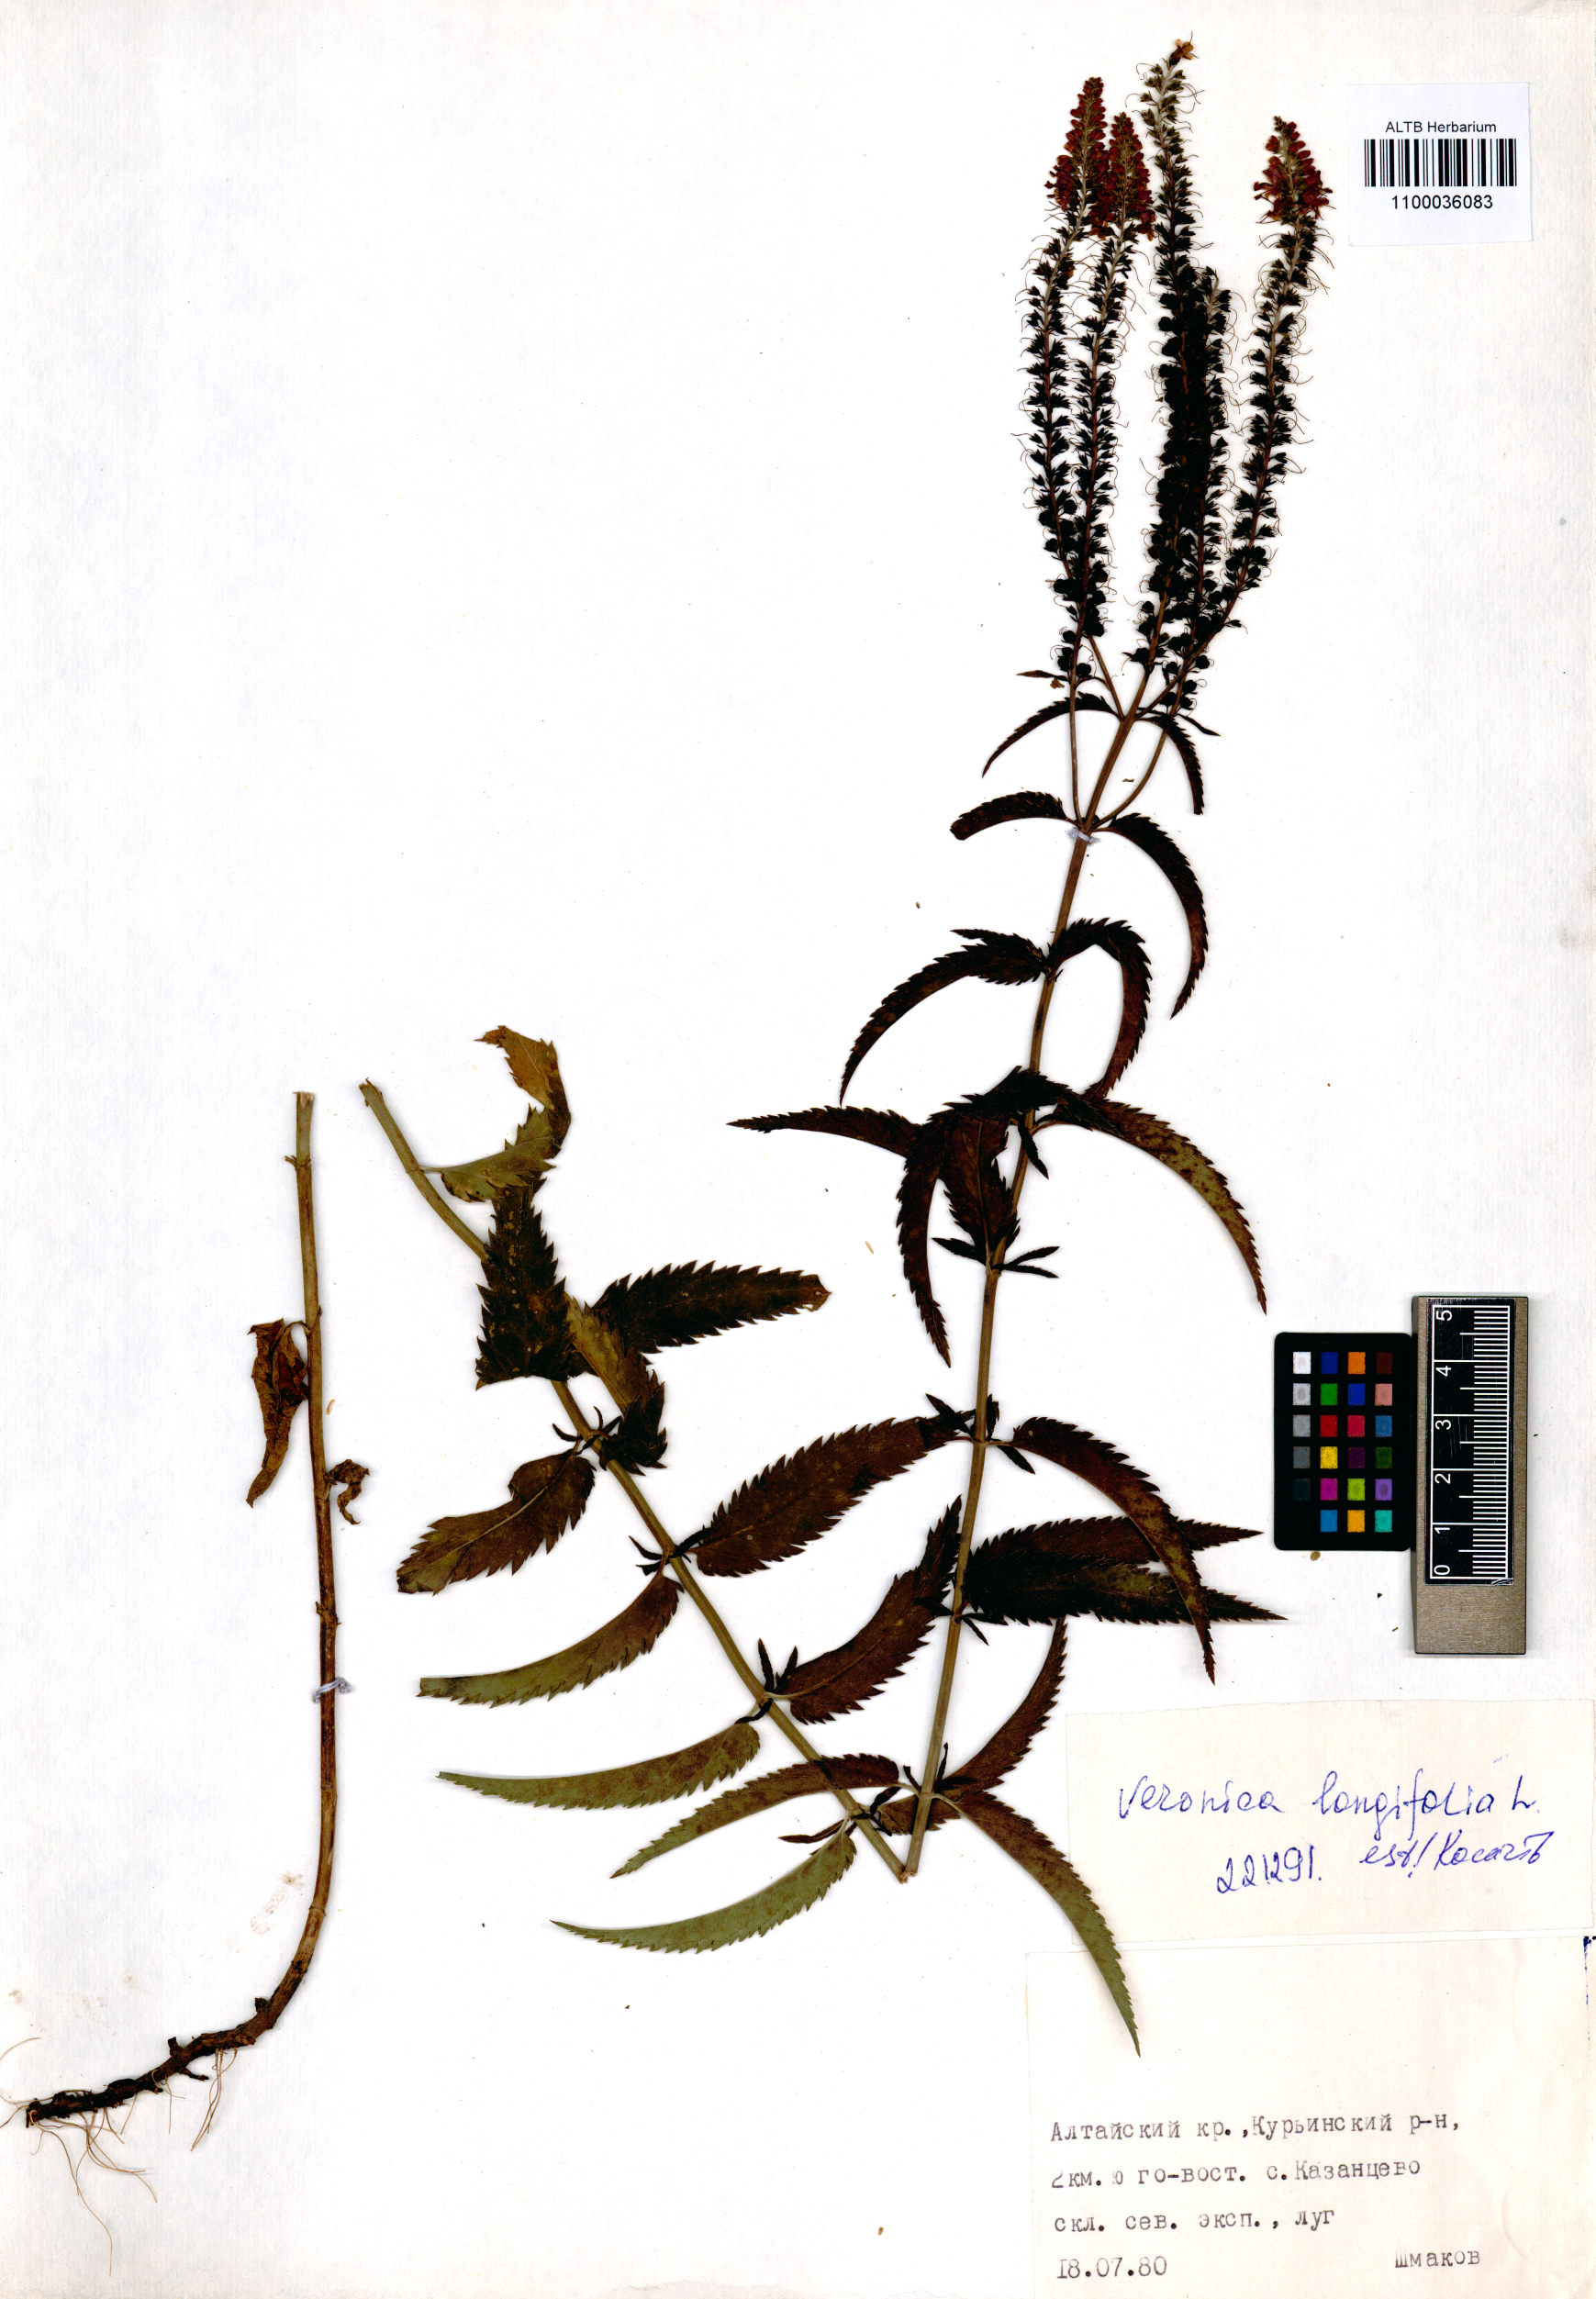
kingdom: Plantae
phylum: Tracheophyta
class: Magnoliopsida
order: Lamiales
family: Plantaginaceae
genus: Veronica
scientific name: Veronica longifolia
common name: Garden speedwell
